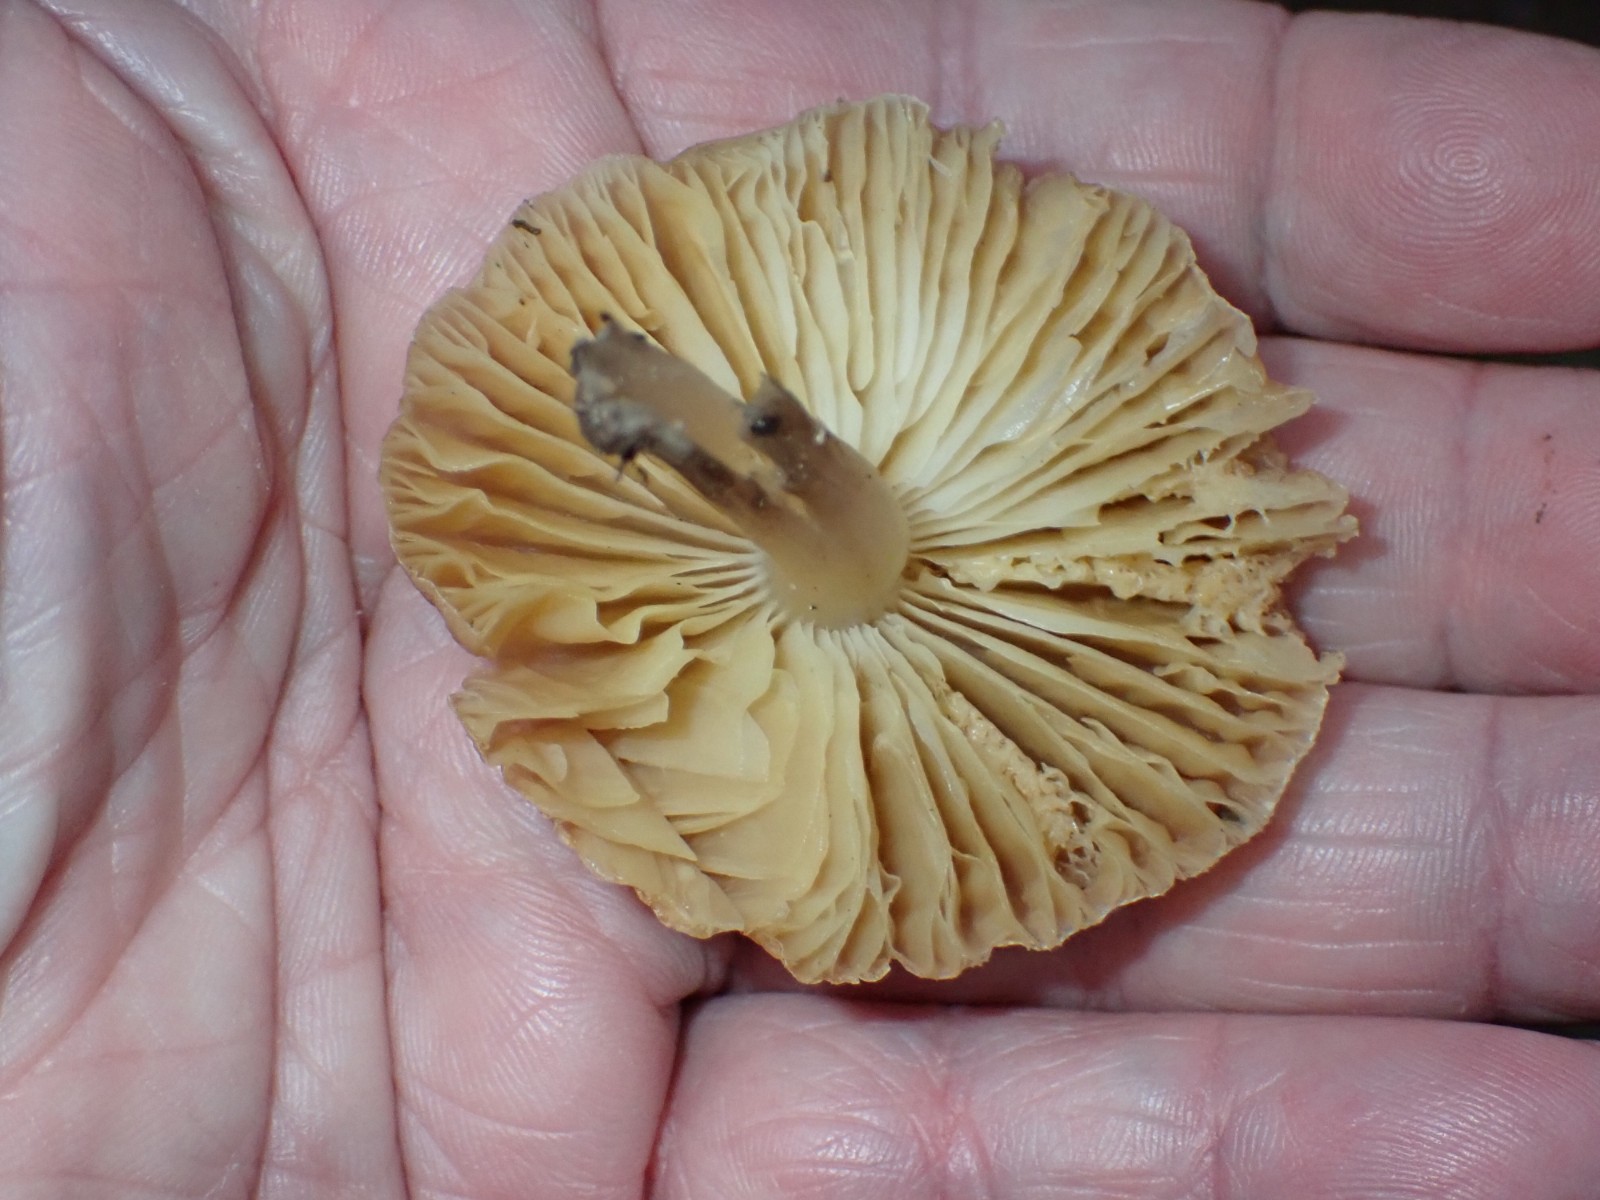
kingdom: Fungi
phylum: Basidiomycota
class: Agaricomycetes
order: Agaricales
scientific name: Agaricales
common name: champignonordenen
